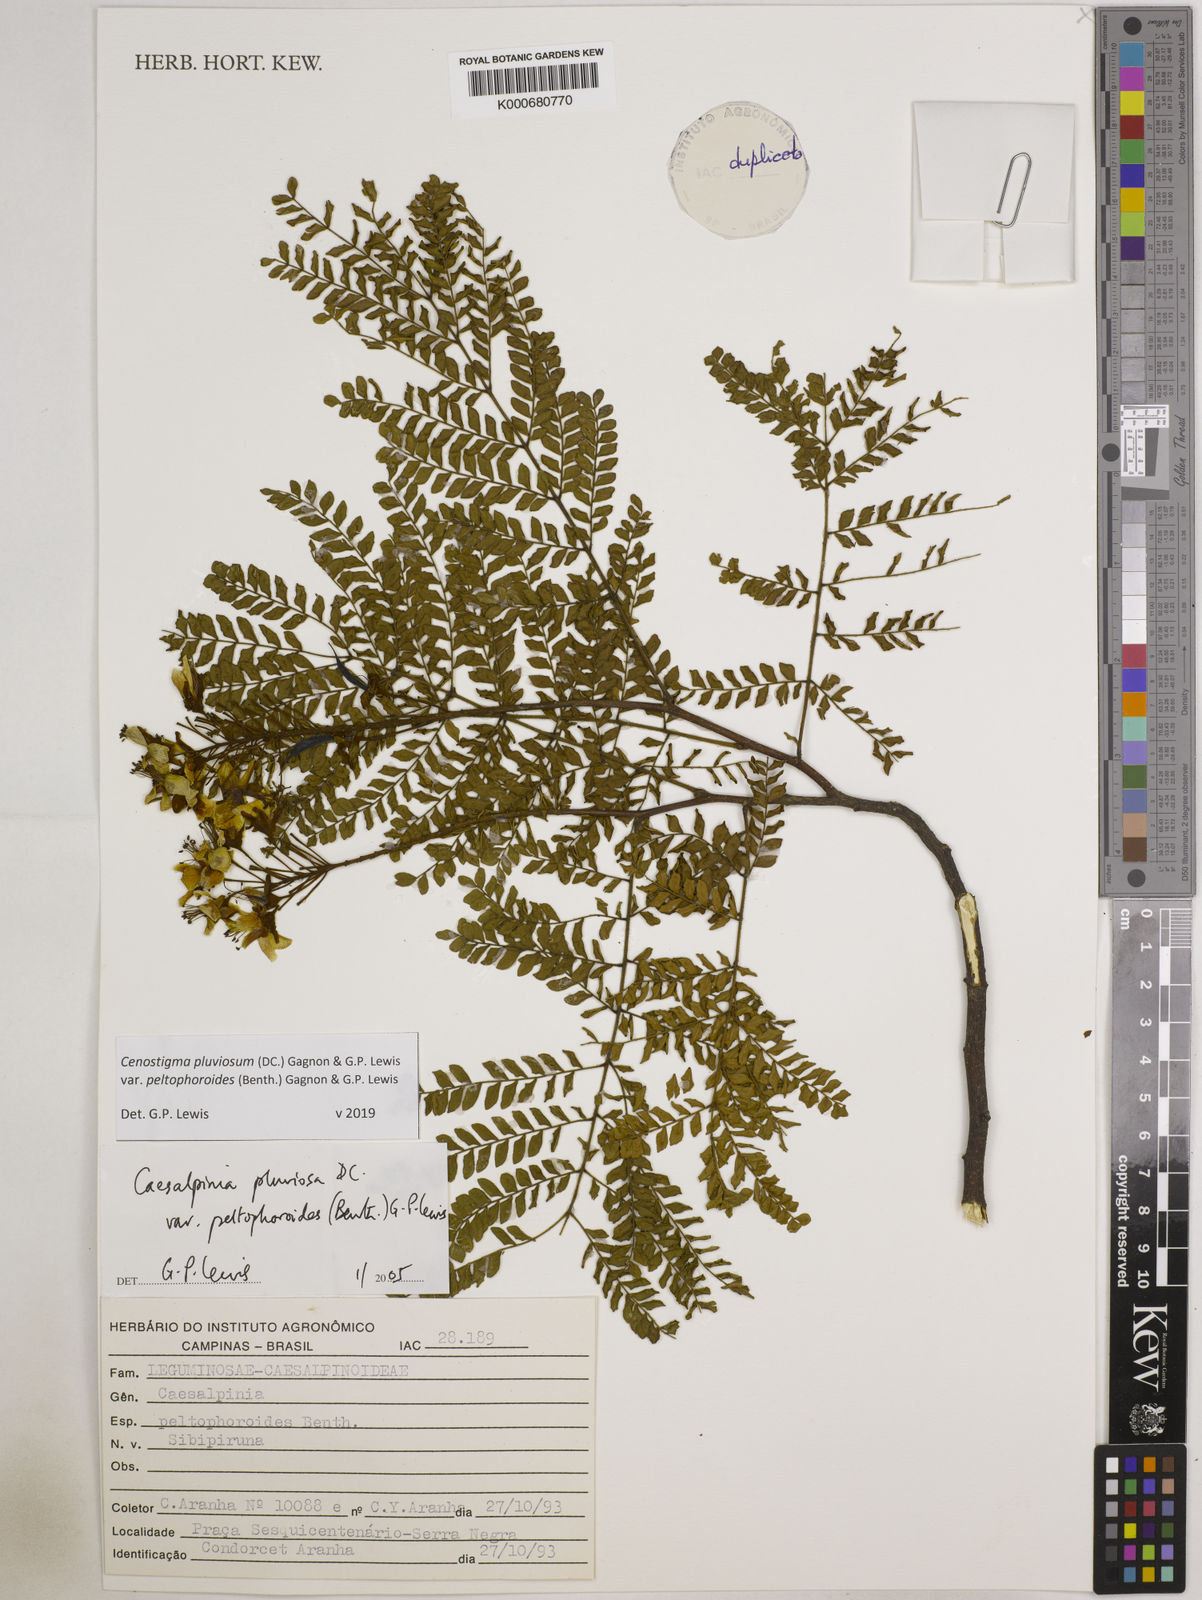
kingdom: Plantae
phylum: Tracheophyta
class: Magnoliopsida
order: Fabales
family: Fabaceae
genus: Cenostigma
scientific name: Cenostigma pluviosum
